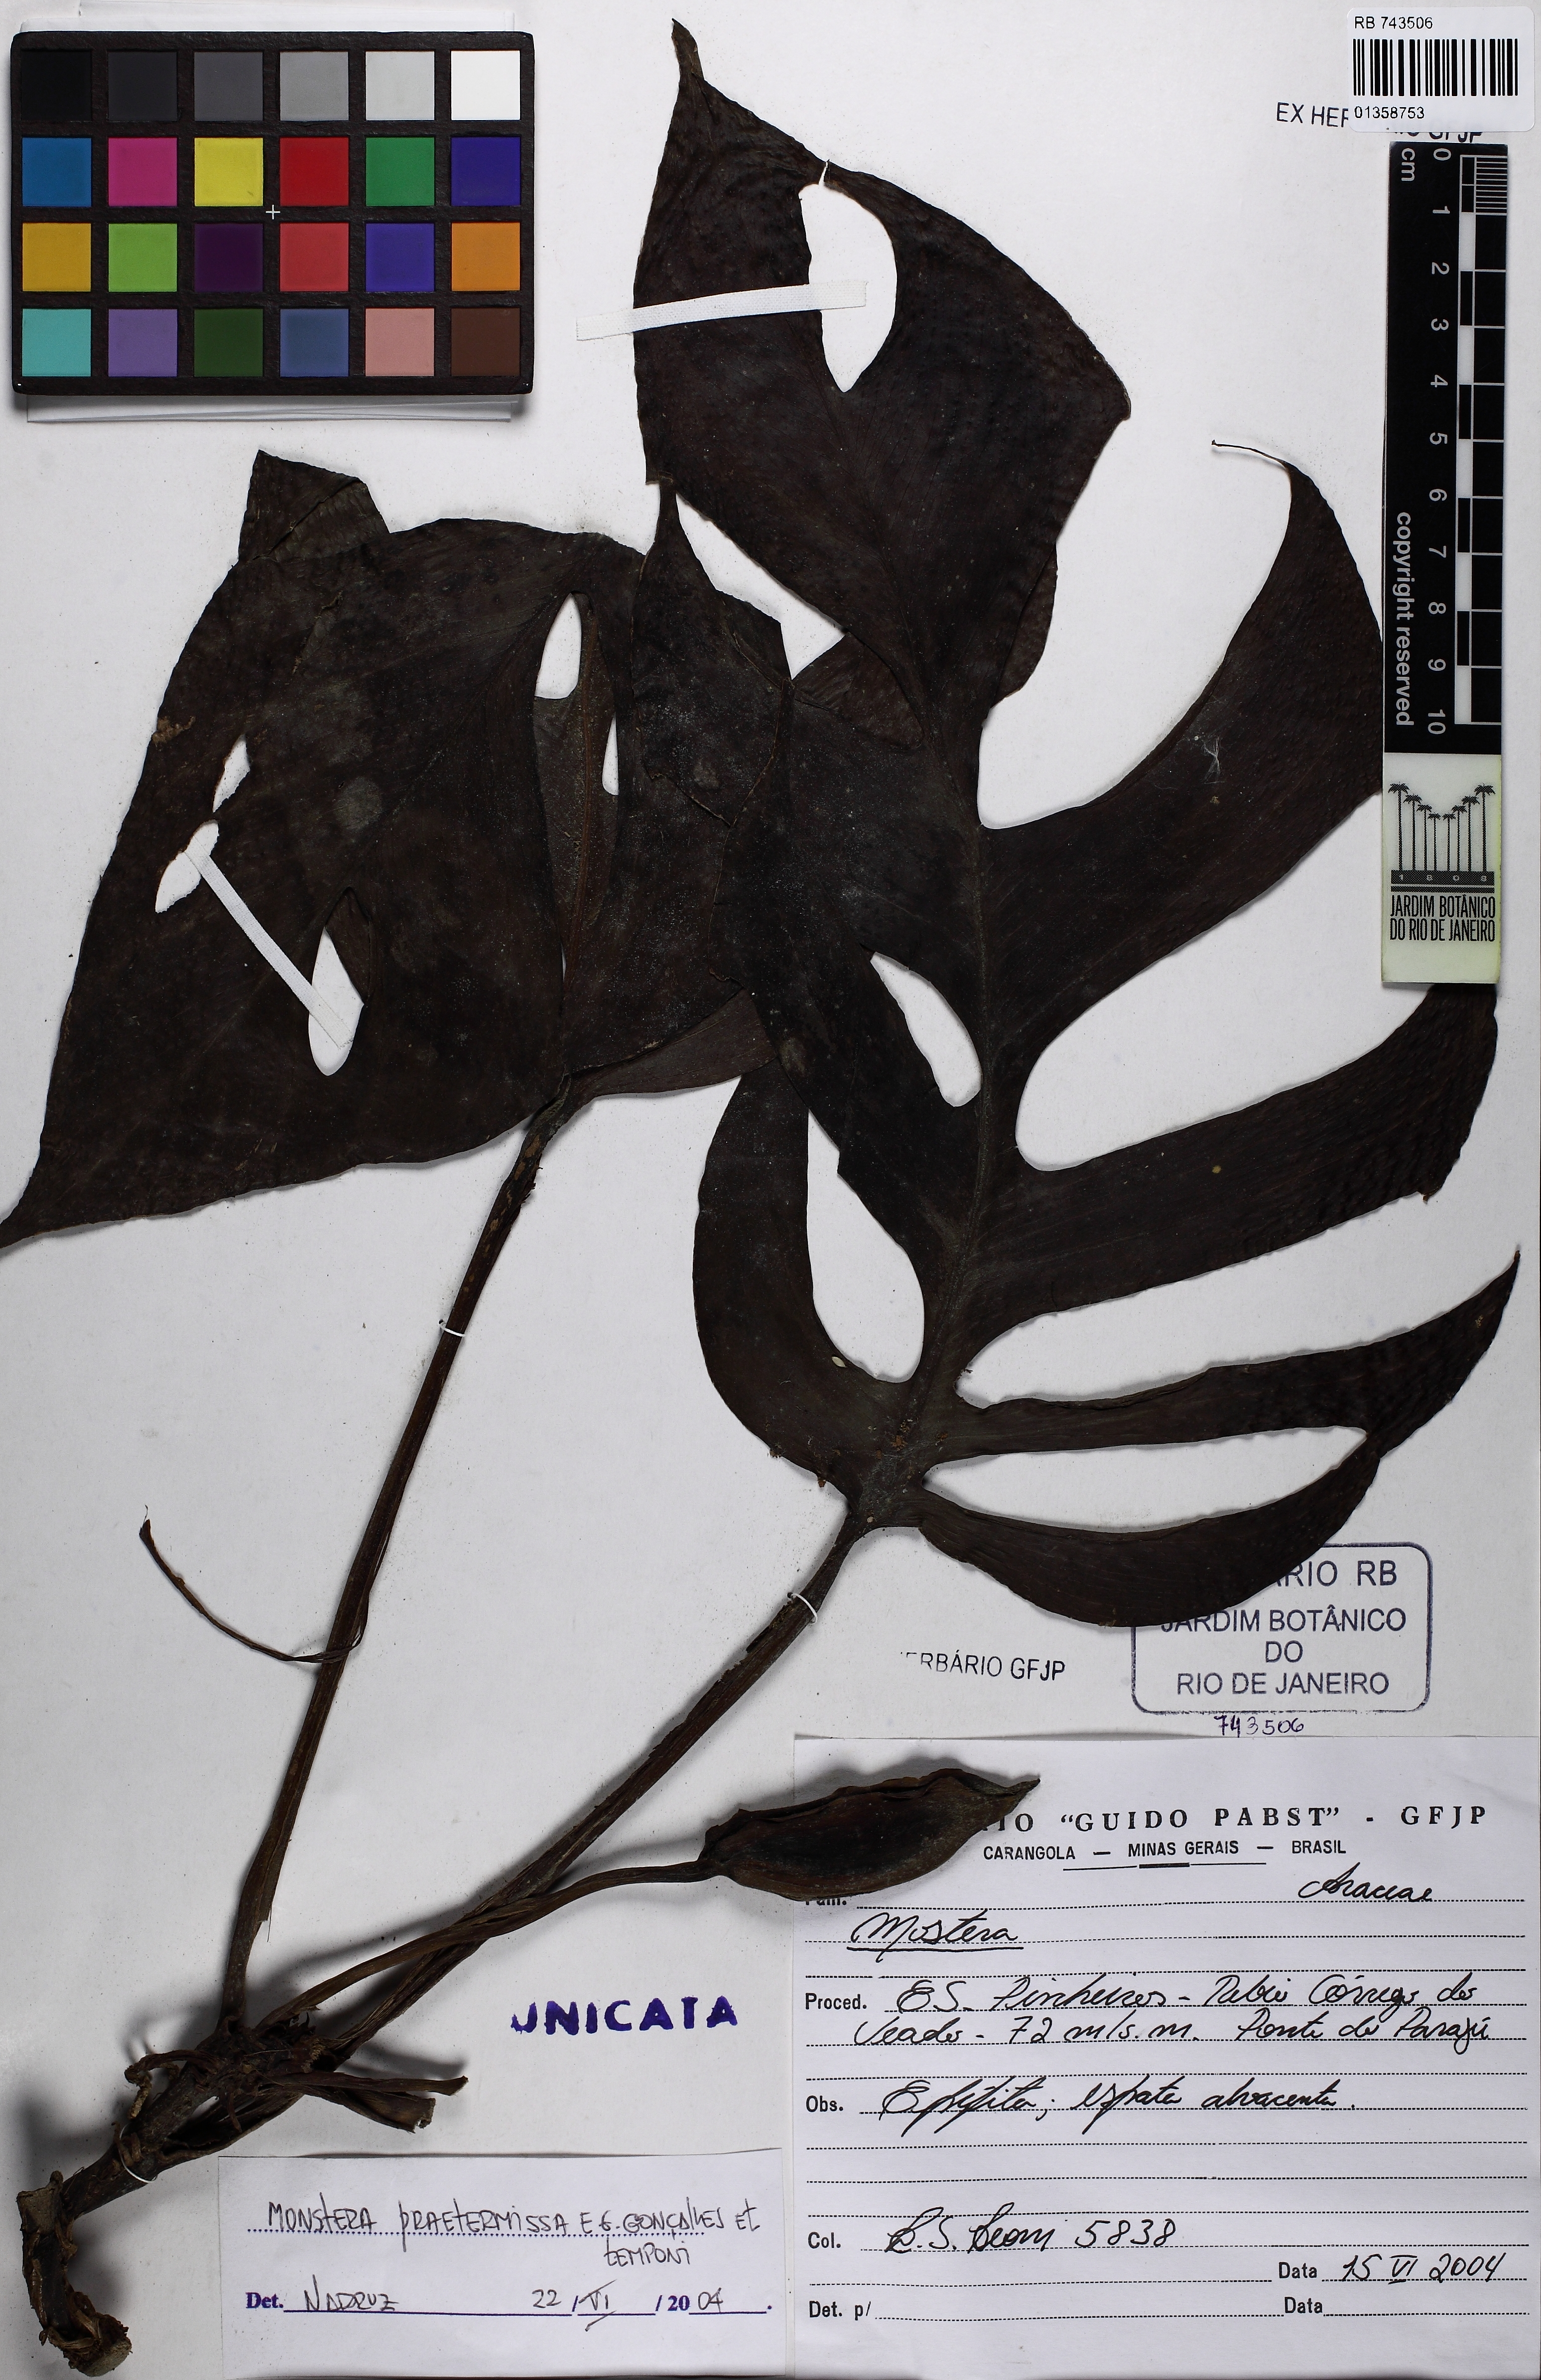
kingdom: Plantae
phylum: Tracheophyta
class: Liliopsida
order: Alismatales
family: Araceae
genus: Monstera
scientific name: Monstera praetermissa
